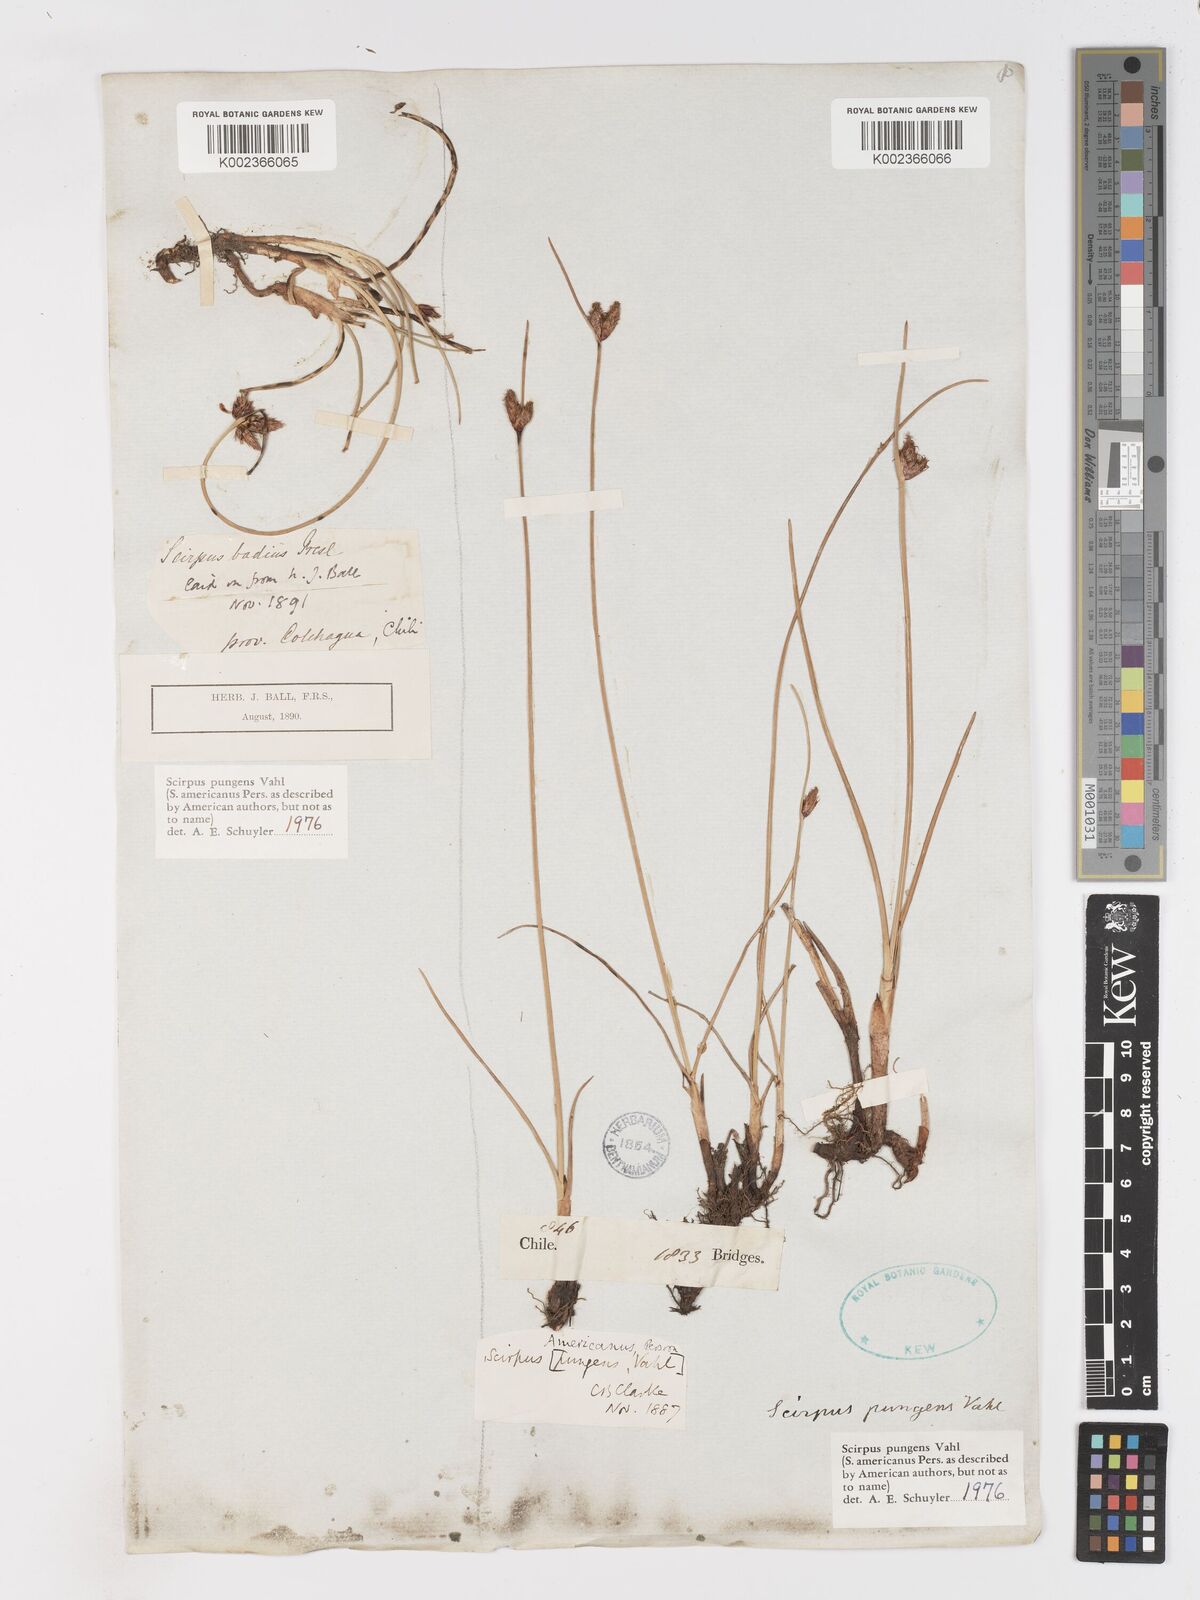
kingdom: Plantae
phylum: Tracheophyta
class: Liliopsida
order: Poales
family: Cyperaceae
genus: Schoenoplectus
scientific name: Schoenoplectus pungens
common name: Sharp club-rush
